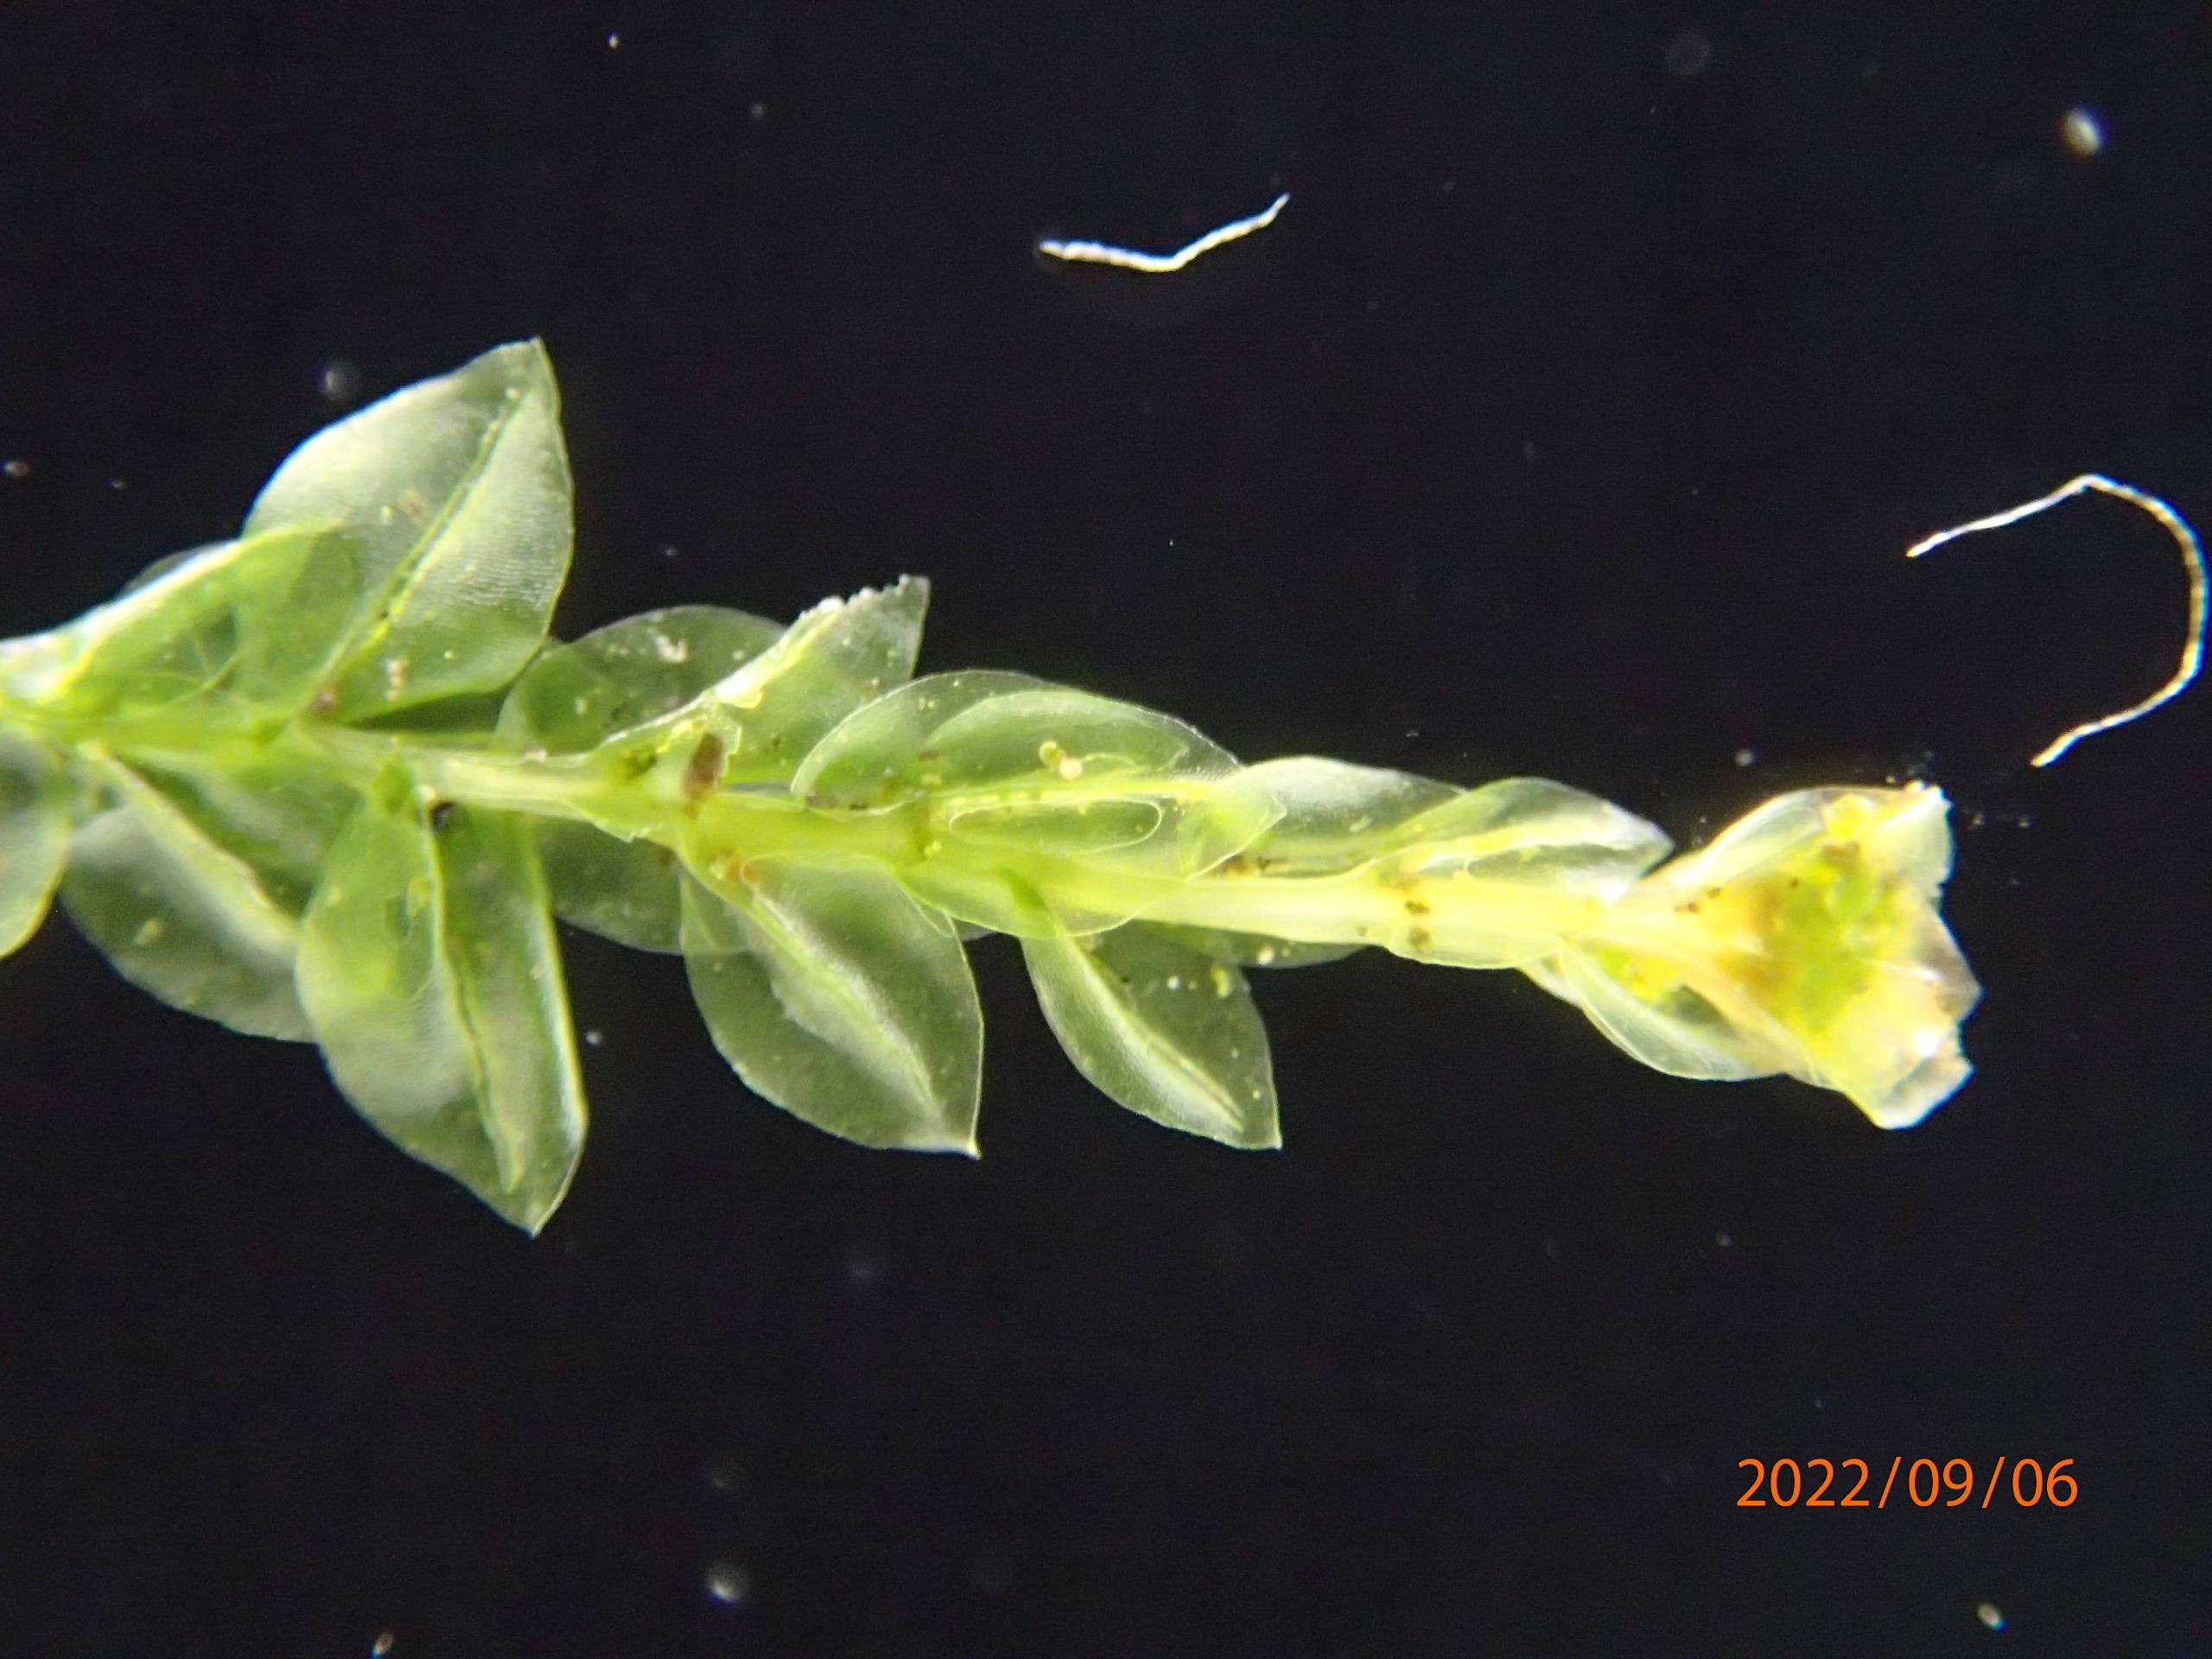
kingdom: Plantae
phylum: Bryophyta
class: Polytrichopsida
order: Tetraphidales
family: Tetraphidaceae
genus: Tetraphis
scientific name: Tetraphis pellucida
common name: Almindelig firtand
